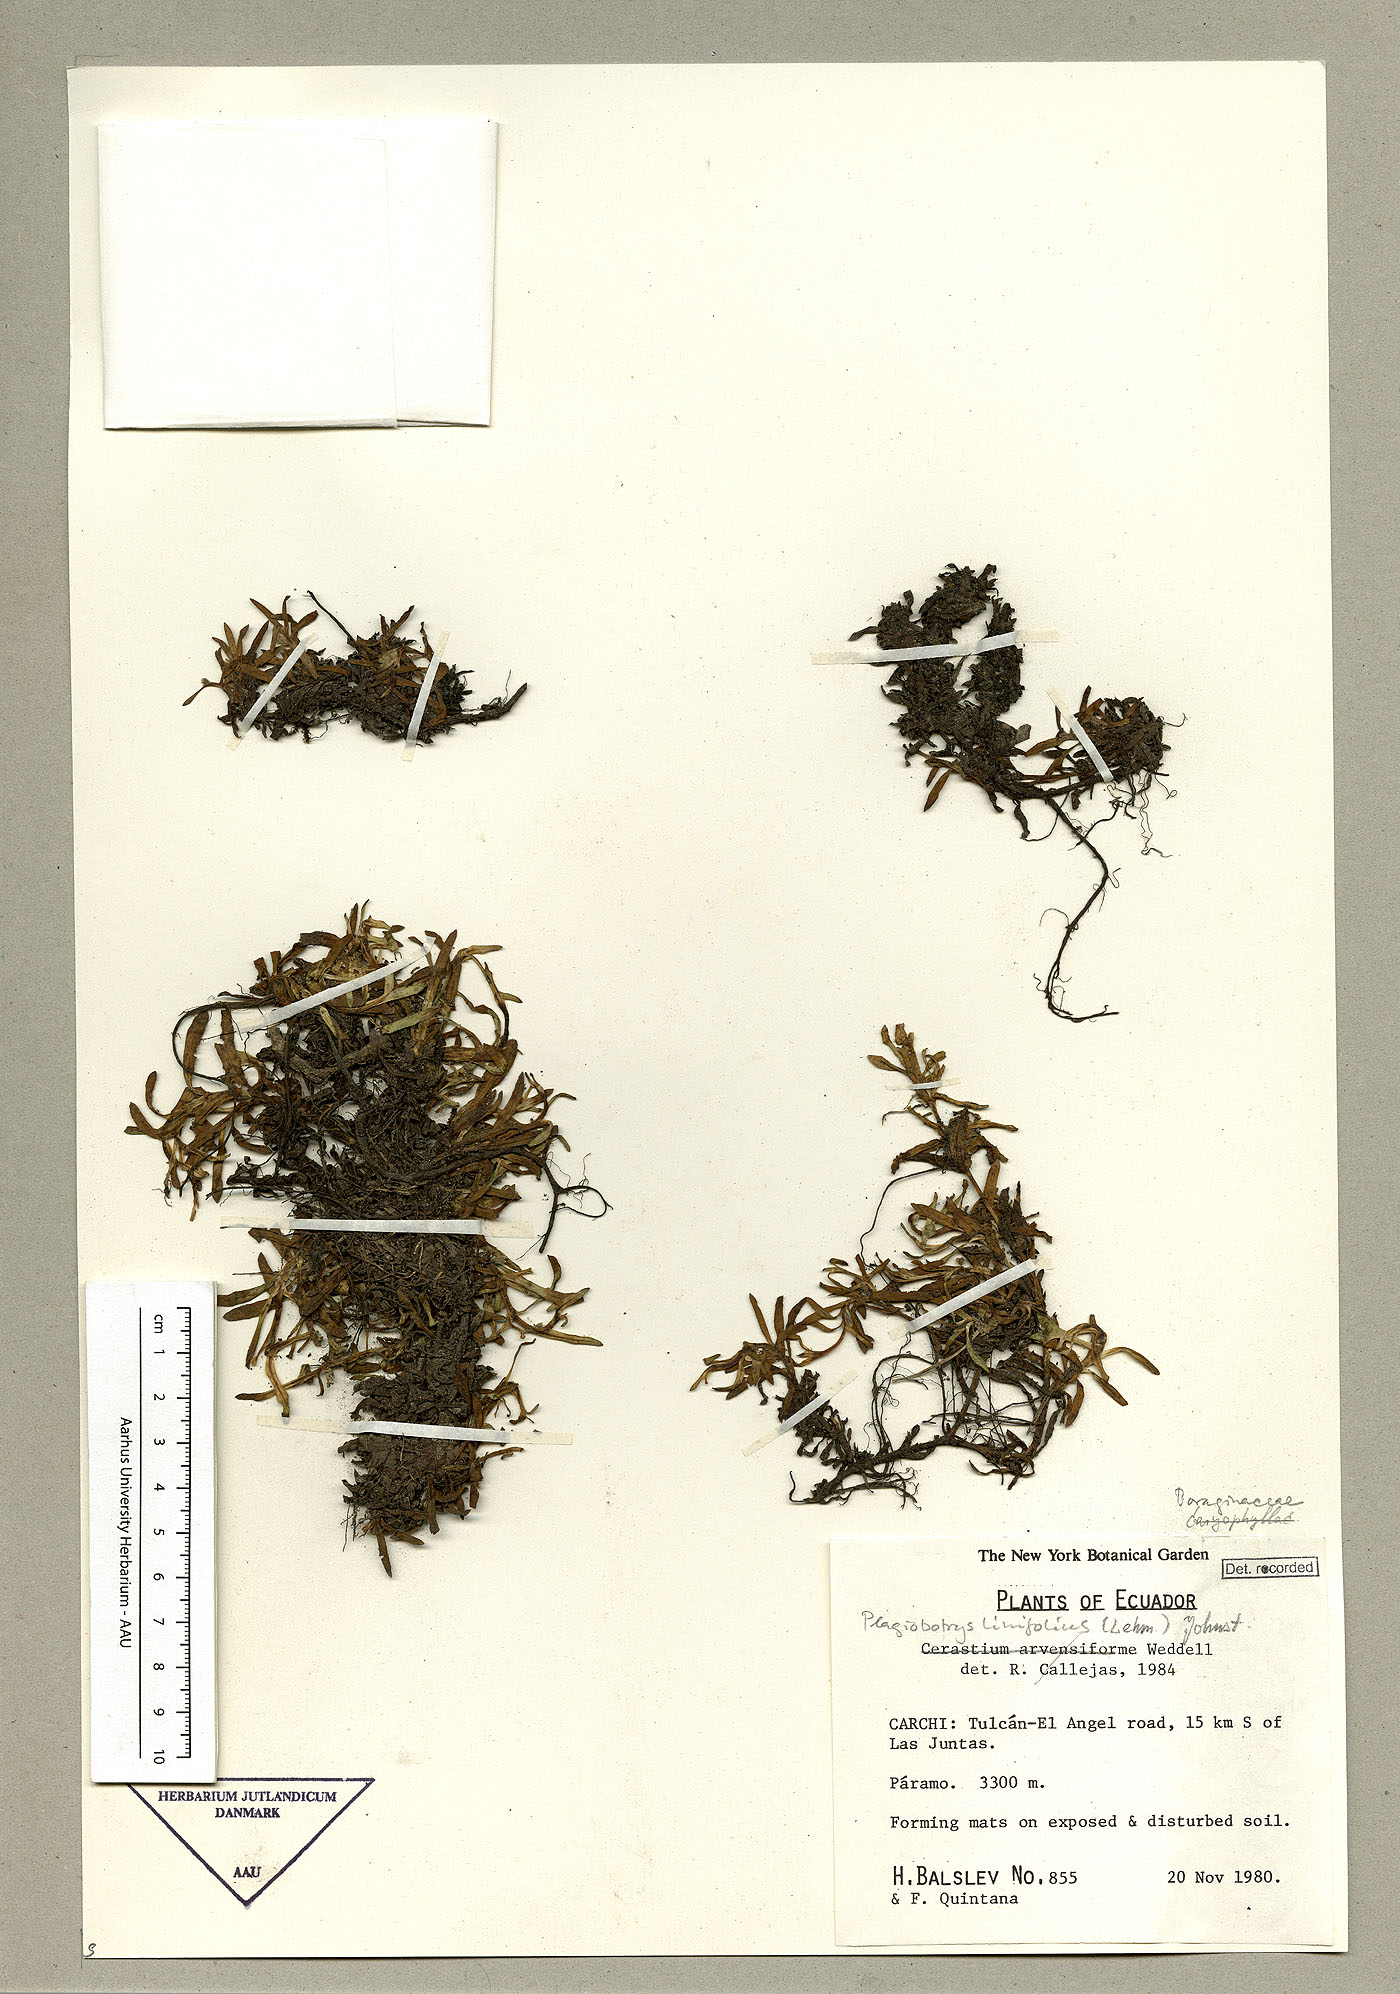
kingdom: Plantae
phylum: Tracheophyta
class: Magnoliopsida
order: Boraginales
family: Boraginaceae
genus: Plagiobothrys
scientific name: Plagiobothrys linifolius
